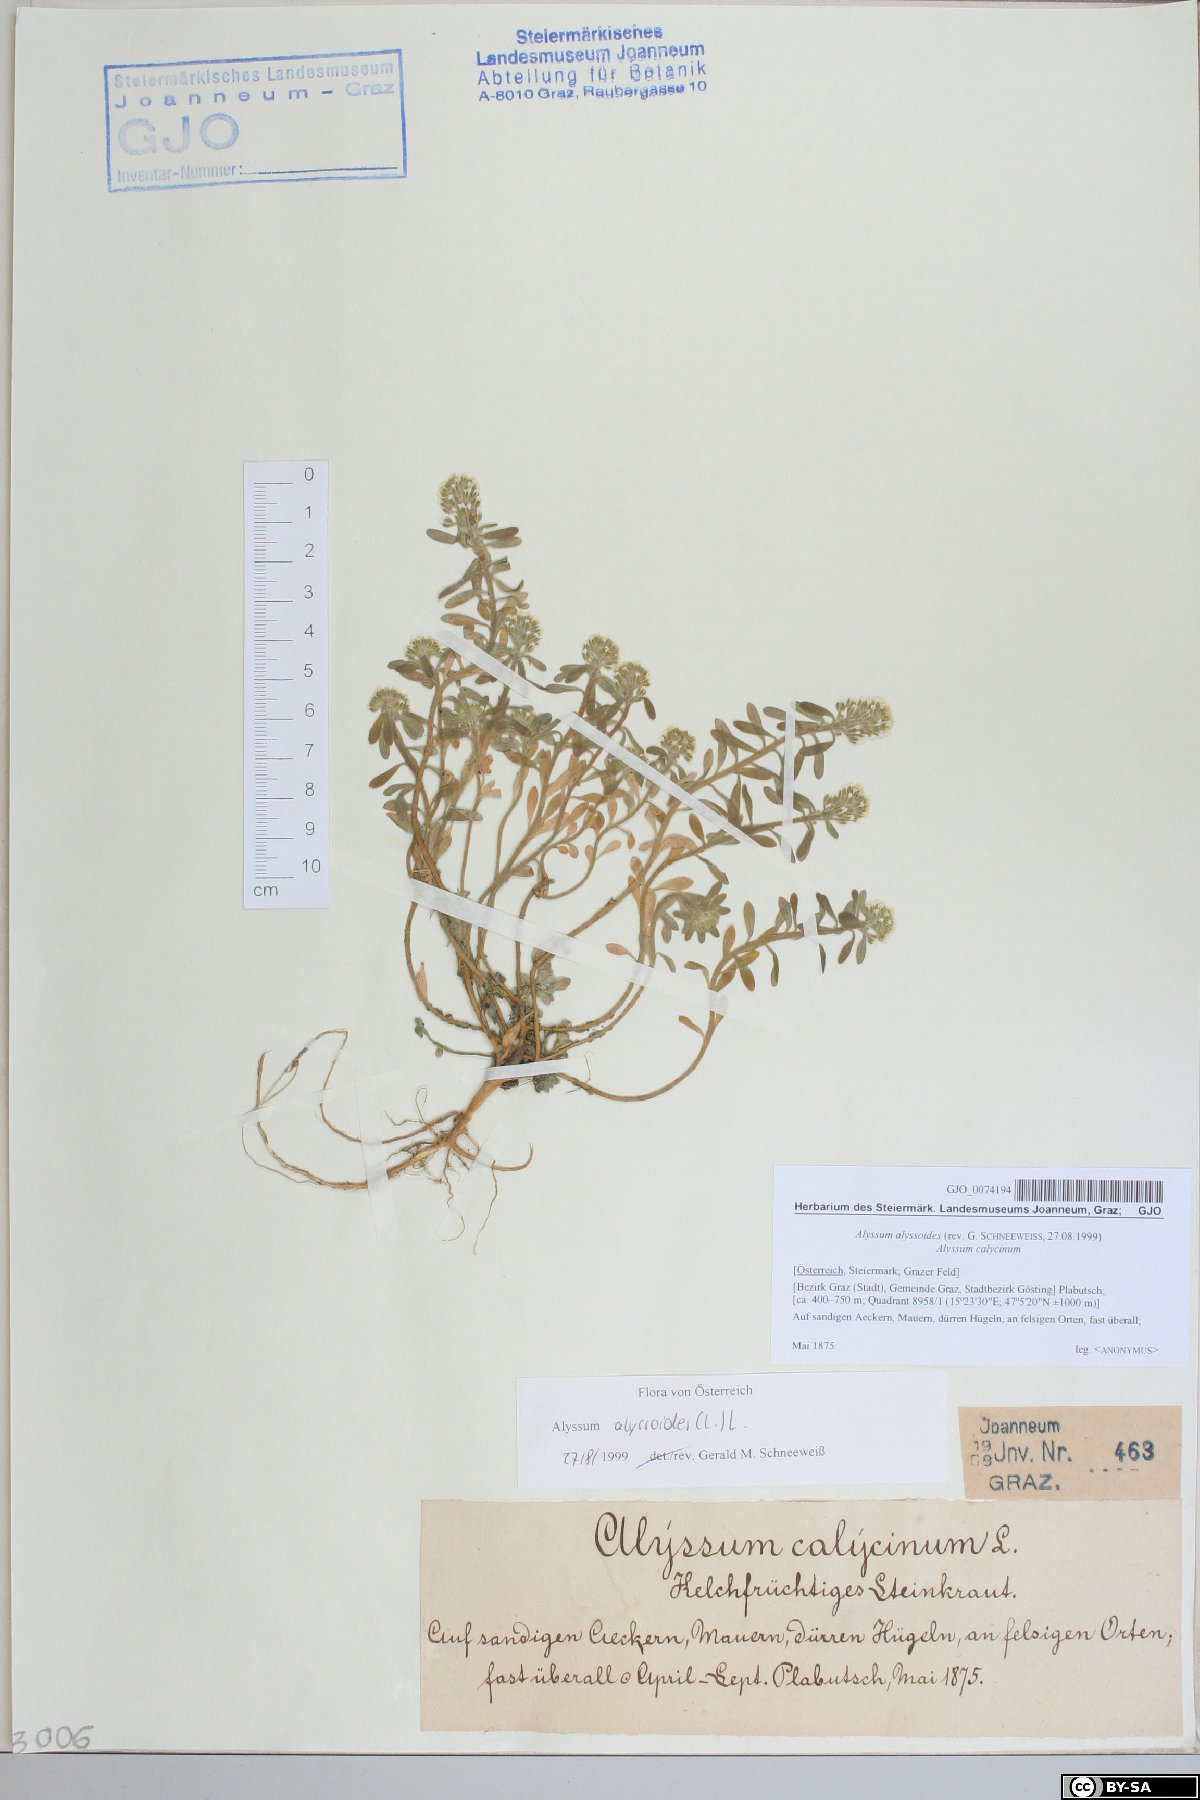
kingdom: Plantae
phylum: Tracheophyta
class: Magnoliopsida
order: Brassicales
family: Brassicaceae
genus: Alyssum
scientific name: Alyssum alyssoides
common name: Small alison
